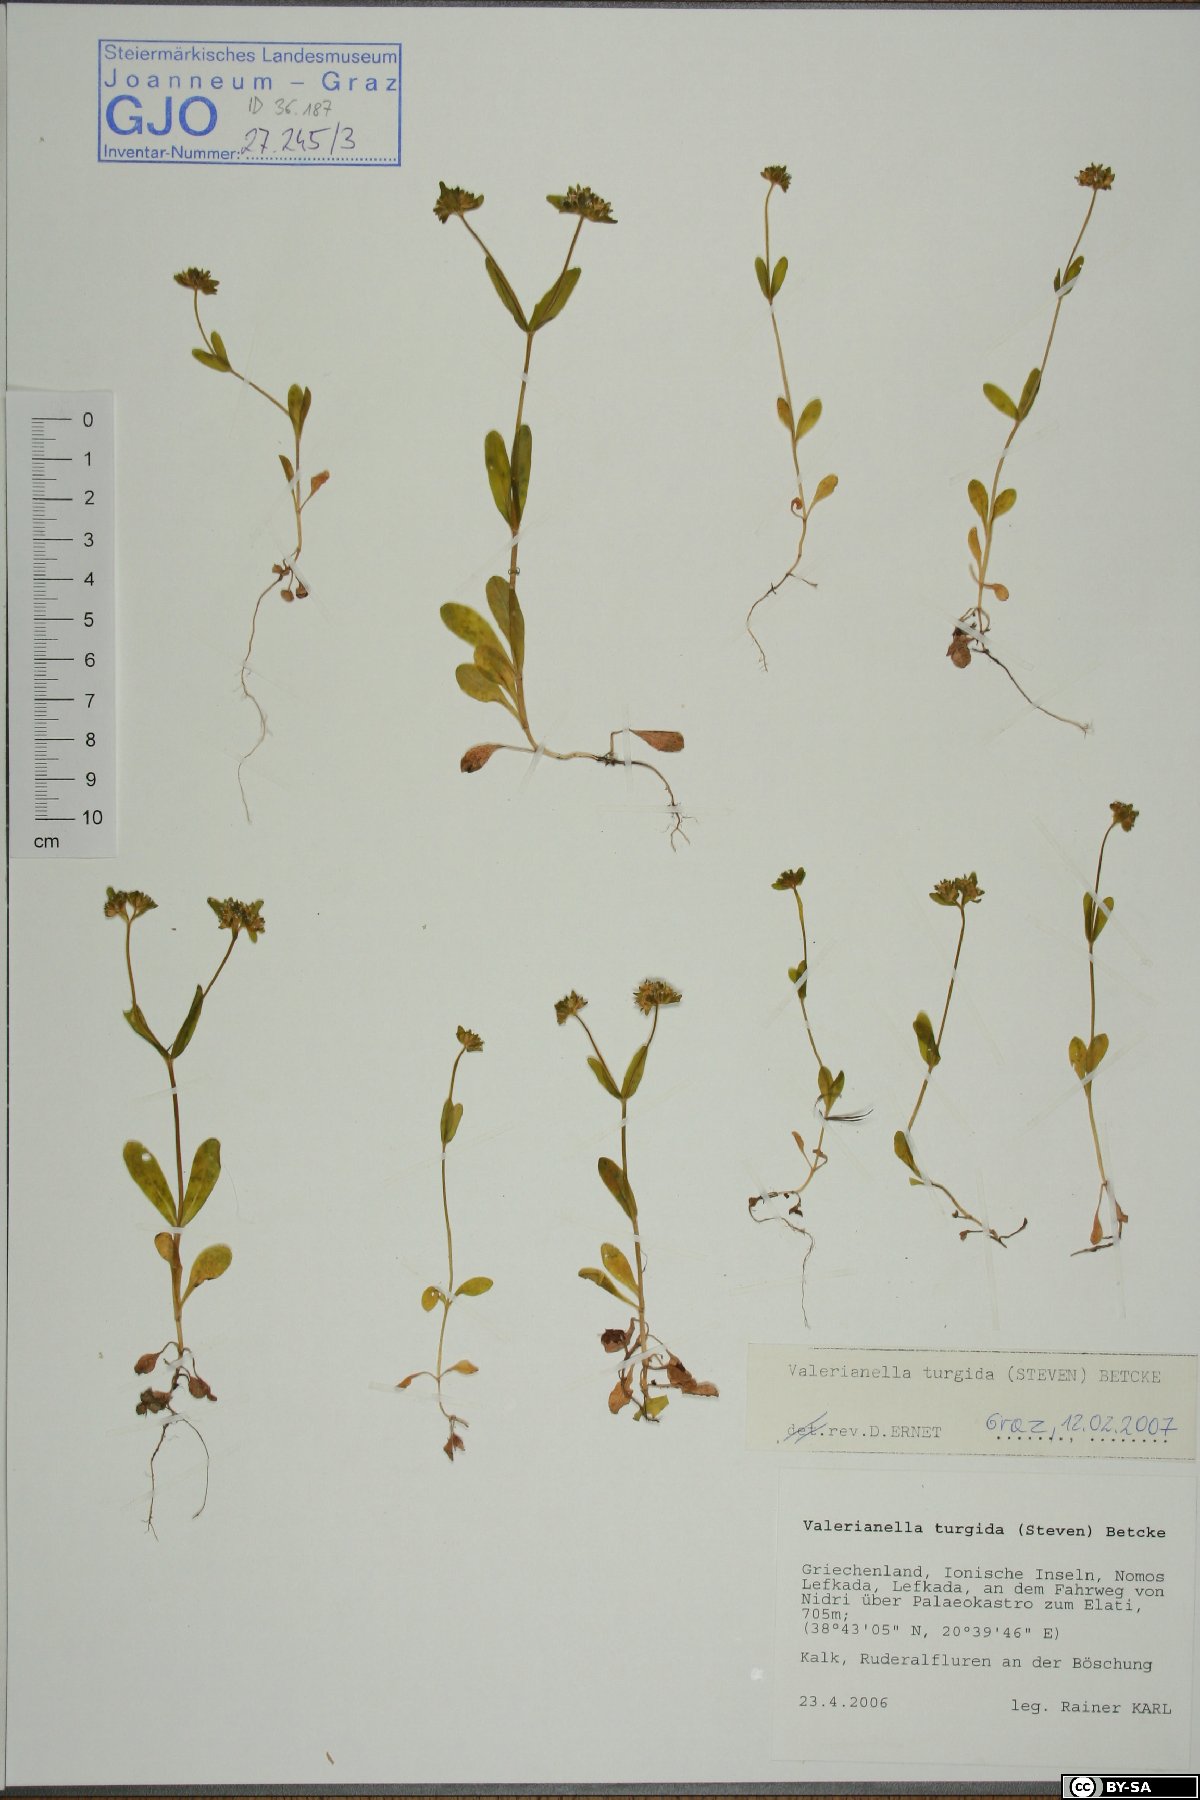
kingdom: Plantae
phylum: Tracheophyta
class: Magnoliopsida
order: Dipsacales
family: Caprifoliaceae
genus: Valerianella
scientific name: Valerianella turgida
